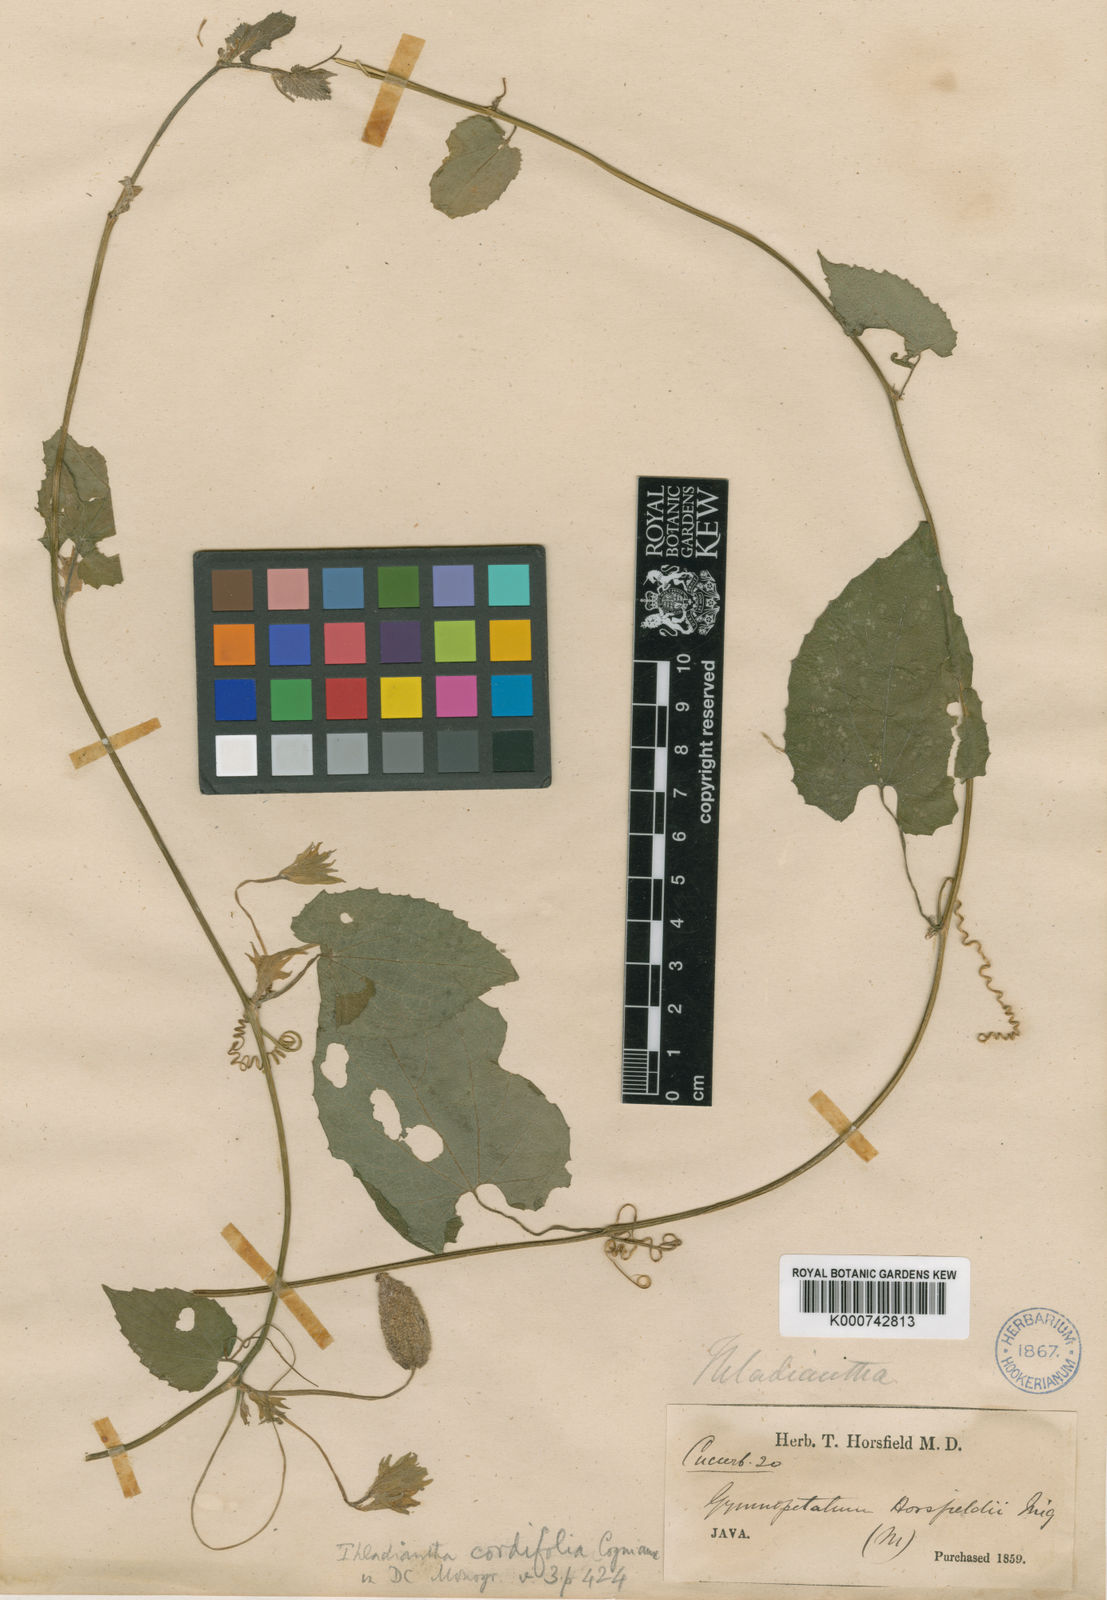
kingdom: Plantae
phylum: Tracheophyta
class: Magnoliopsida
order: Cucurbitales
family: Cucurbitaceae
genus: Thladiantha
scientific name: Thladiantha cordifolia
